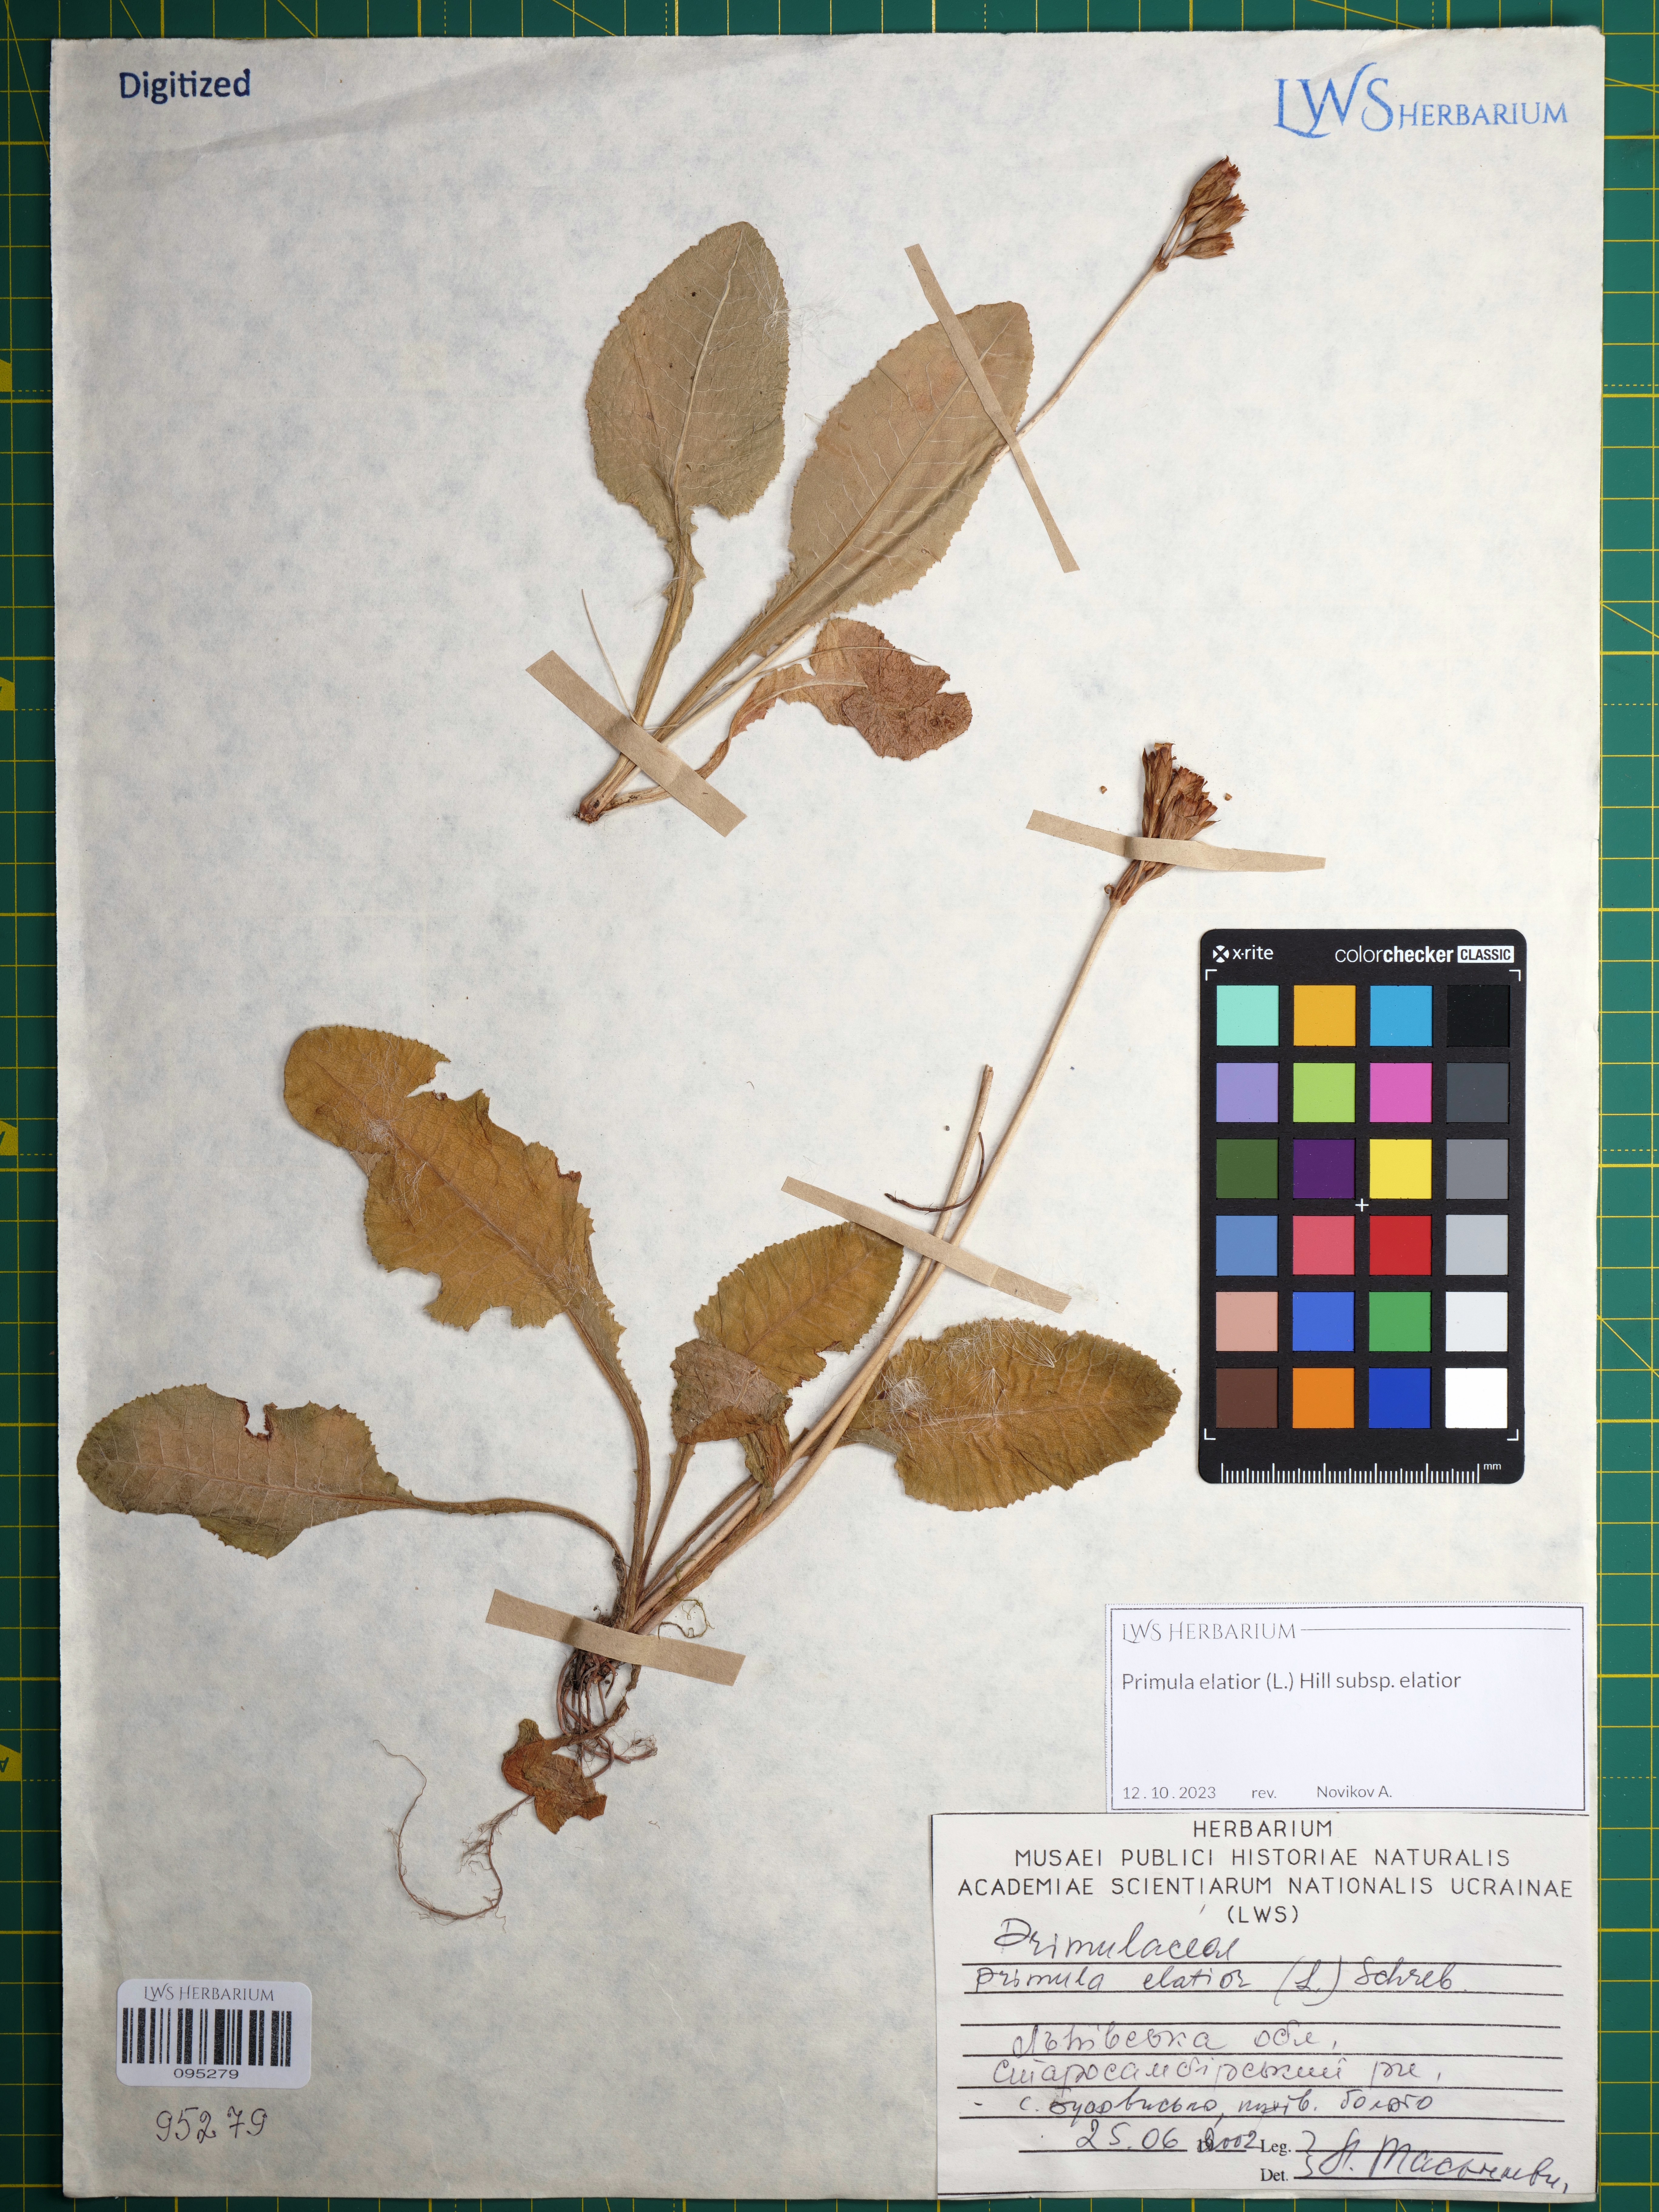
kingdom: Plantae
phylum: Tracheophyta
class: Magnoliopsida
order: Ericales
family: Primulaceae
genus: Primula
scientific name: Primula elatior
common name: Oxlip
